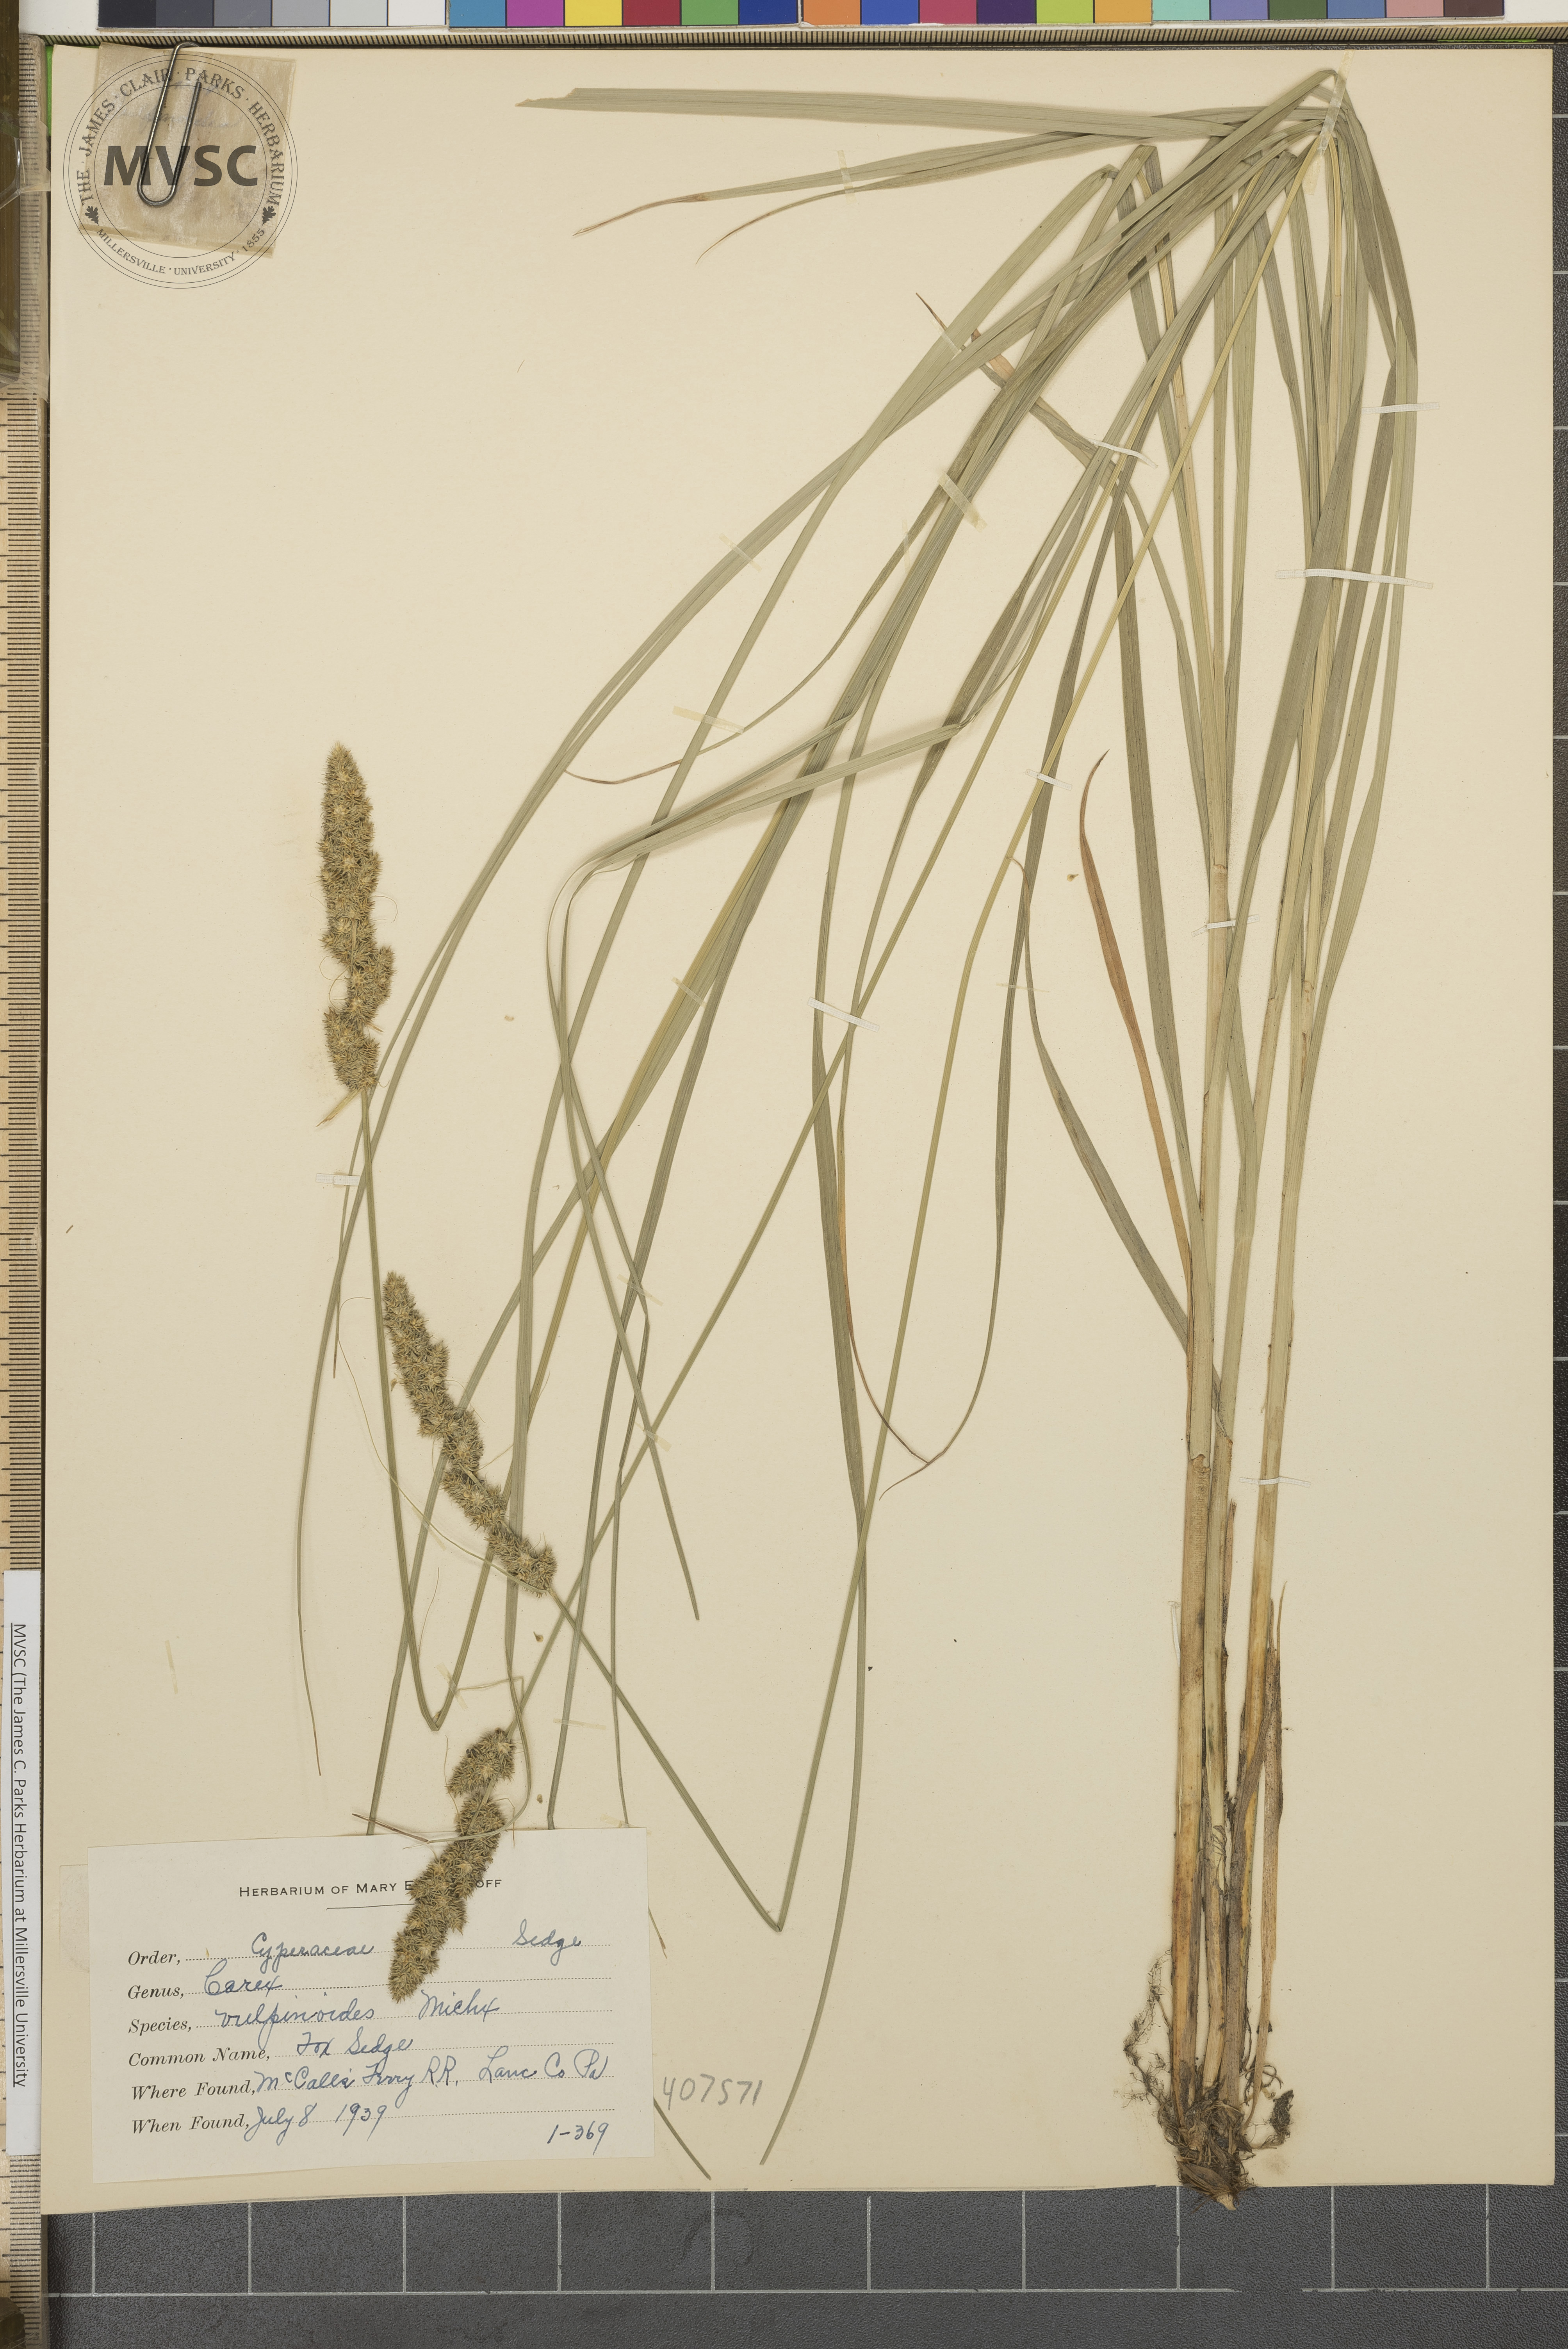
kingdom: Plantae
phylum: Tracheophyta
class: Liliopsida
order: Poales
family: Cyperaceae
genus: Carex
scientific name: Carex vulpinoidea
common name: Fox Sedge
